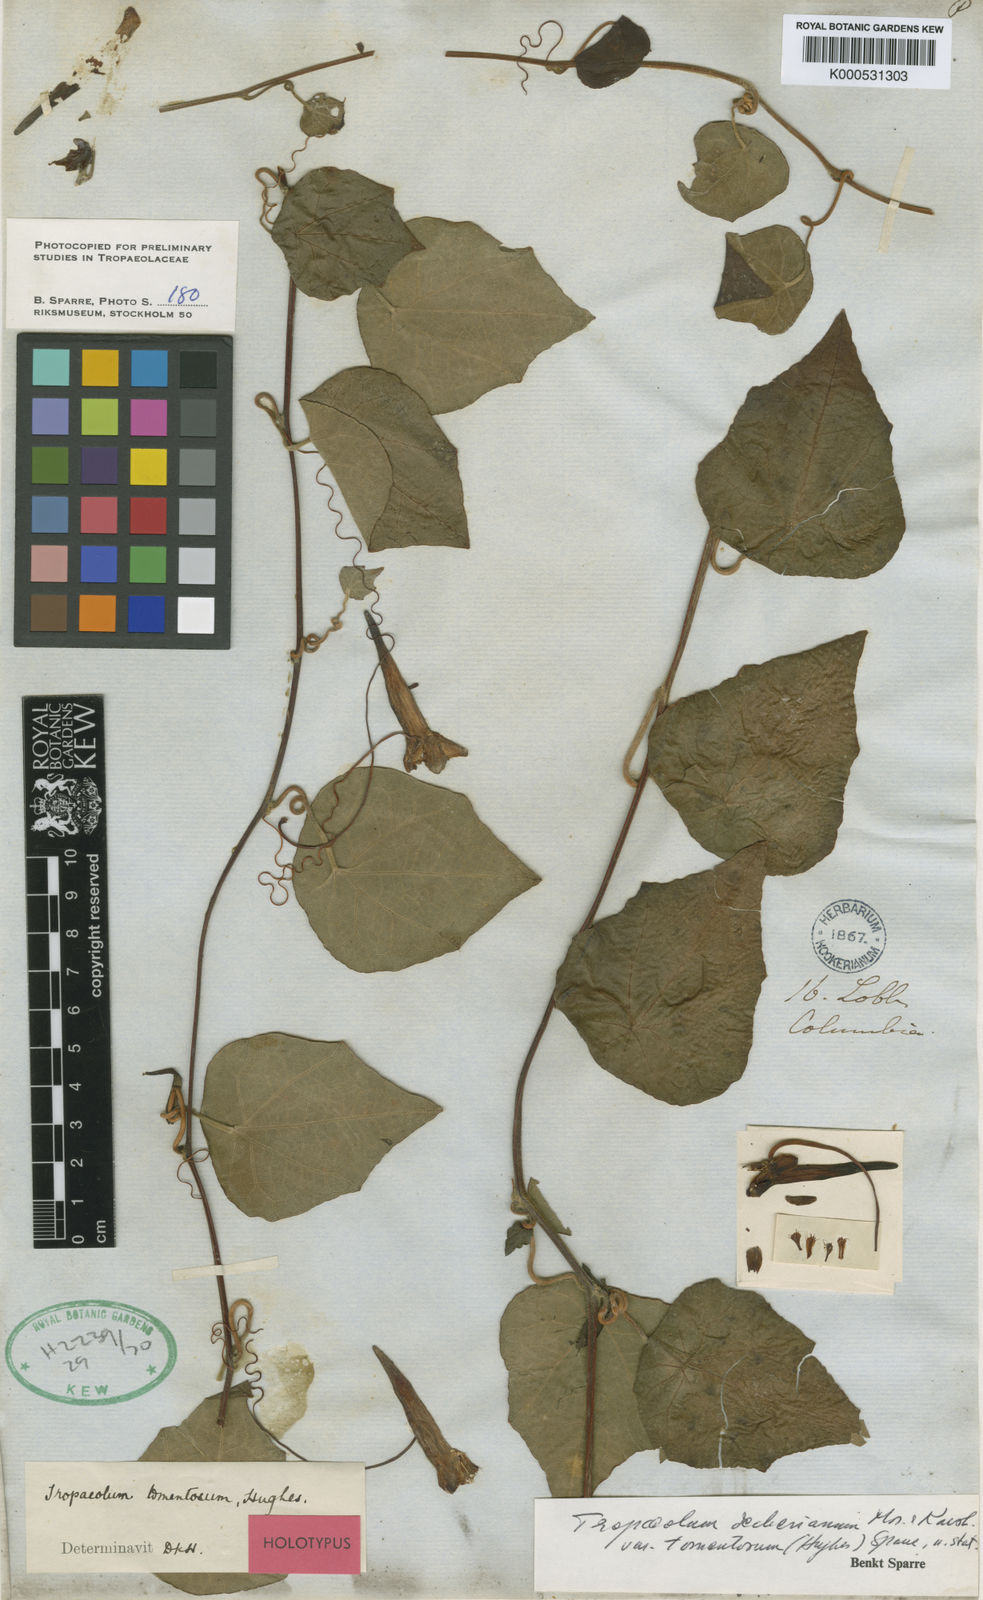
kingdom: Plantae
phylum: Tracheophyta
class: Magnoliopsida
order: Brassicales
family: Tropaeolaceae
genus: Tropaeolum
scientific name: Tropaeolum deckerianum
